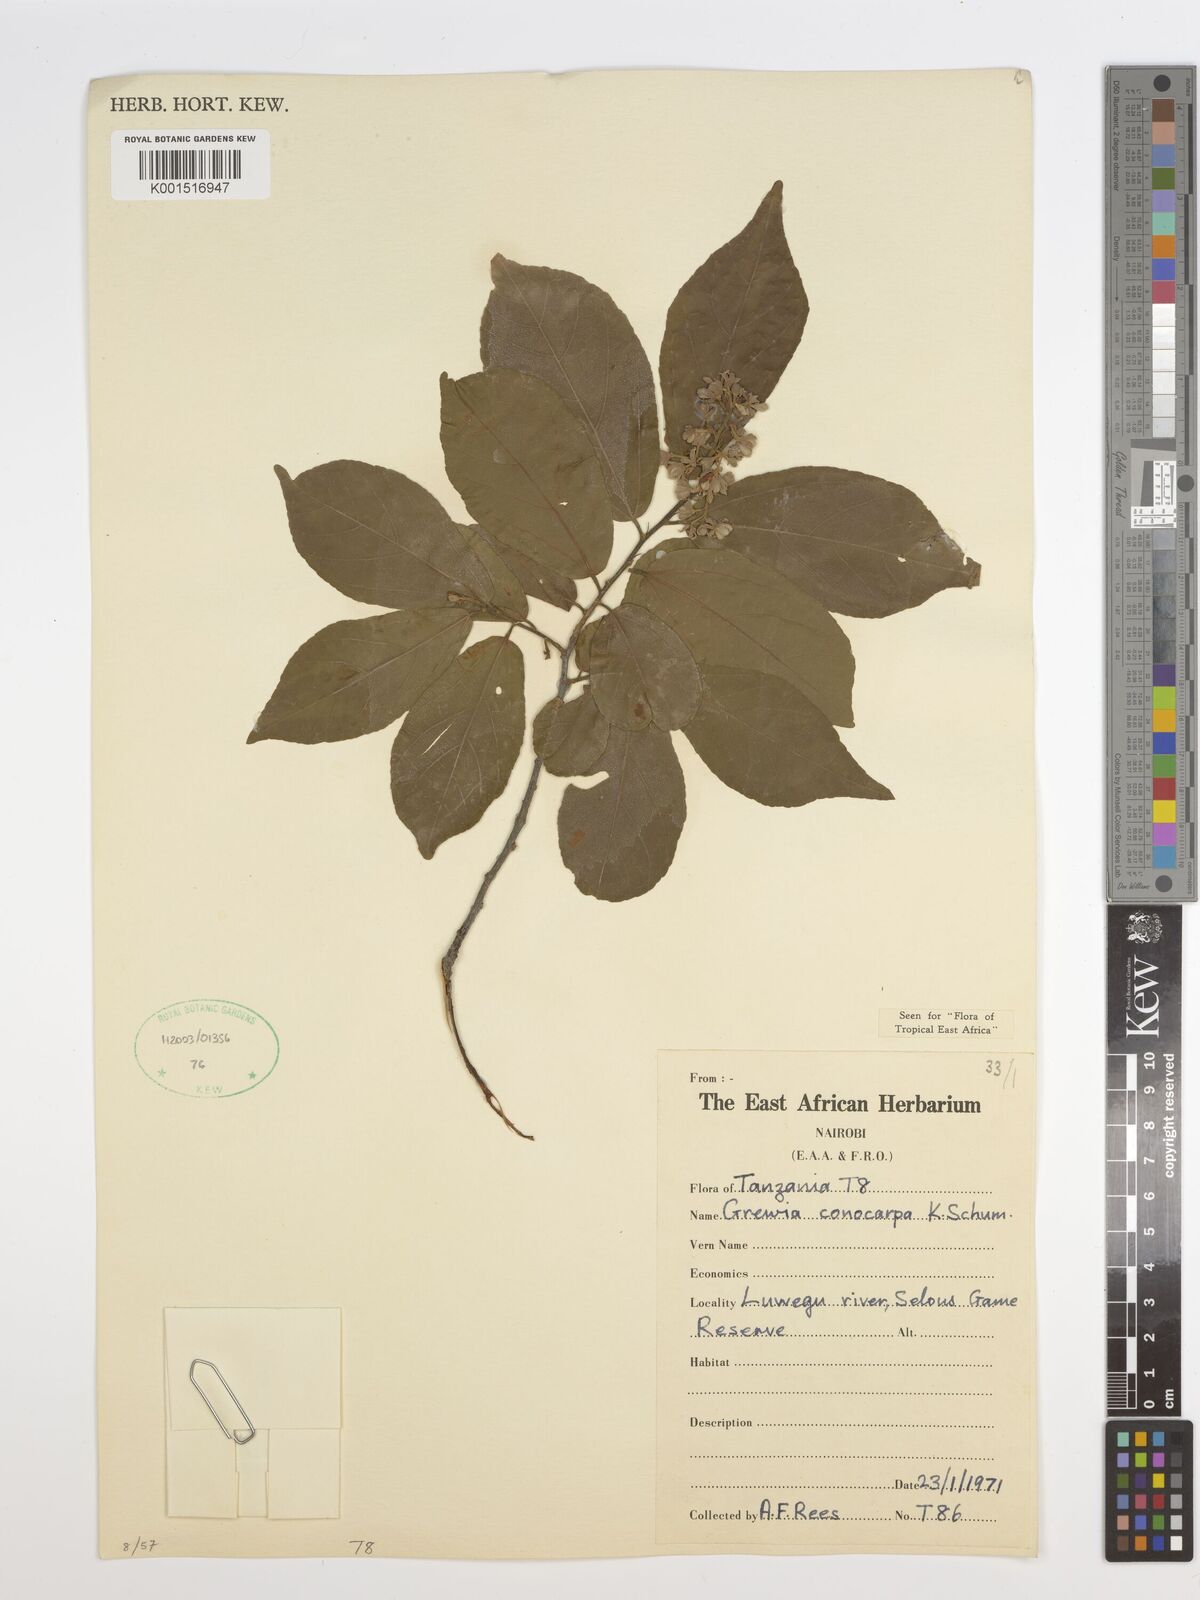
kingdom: Plantae
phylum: Tracheophyta
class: Magnoliopsida
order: Malvales
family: Malvaceae
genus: Microcos
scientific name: Microcos conocarpa
